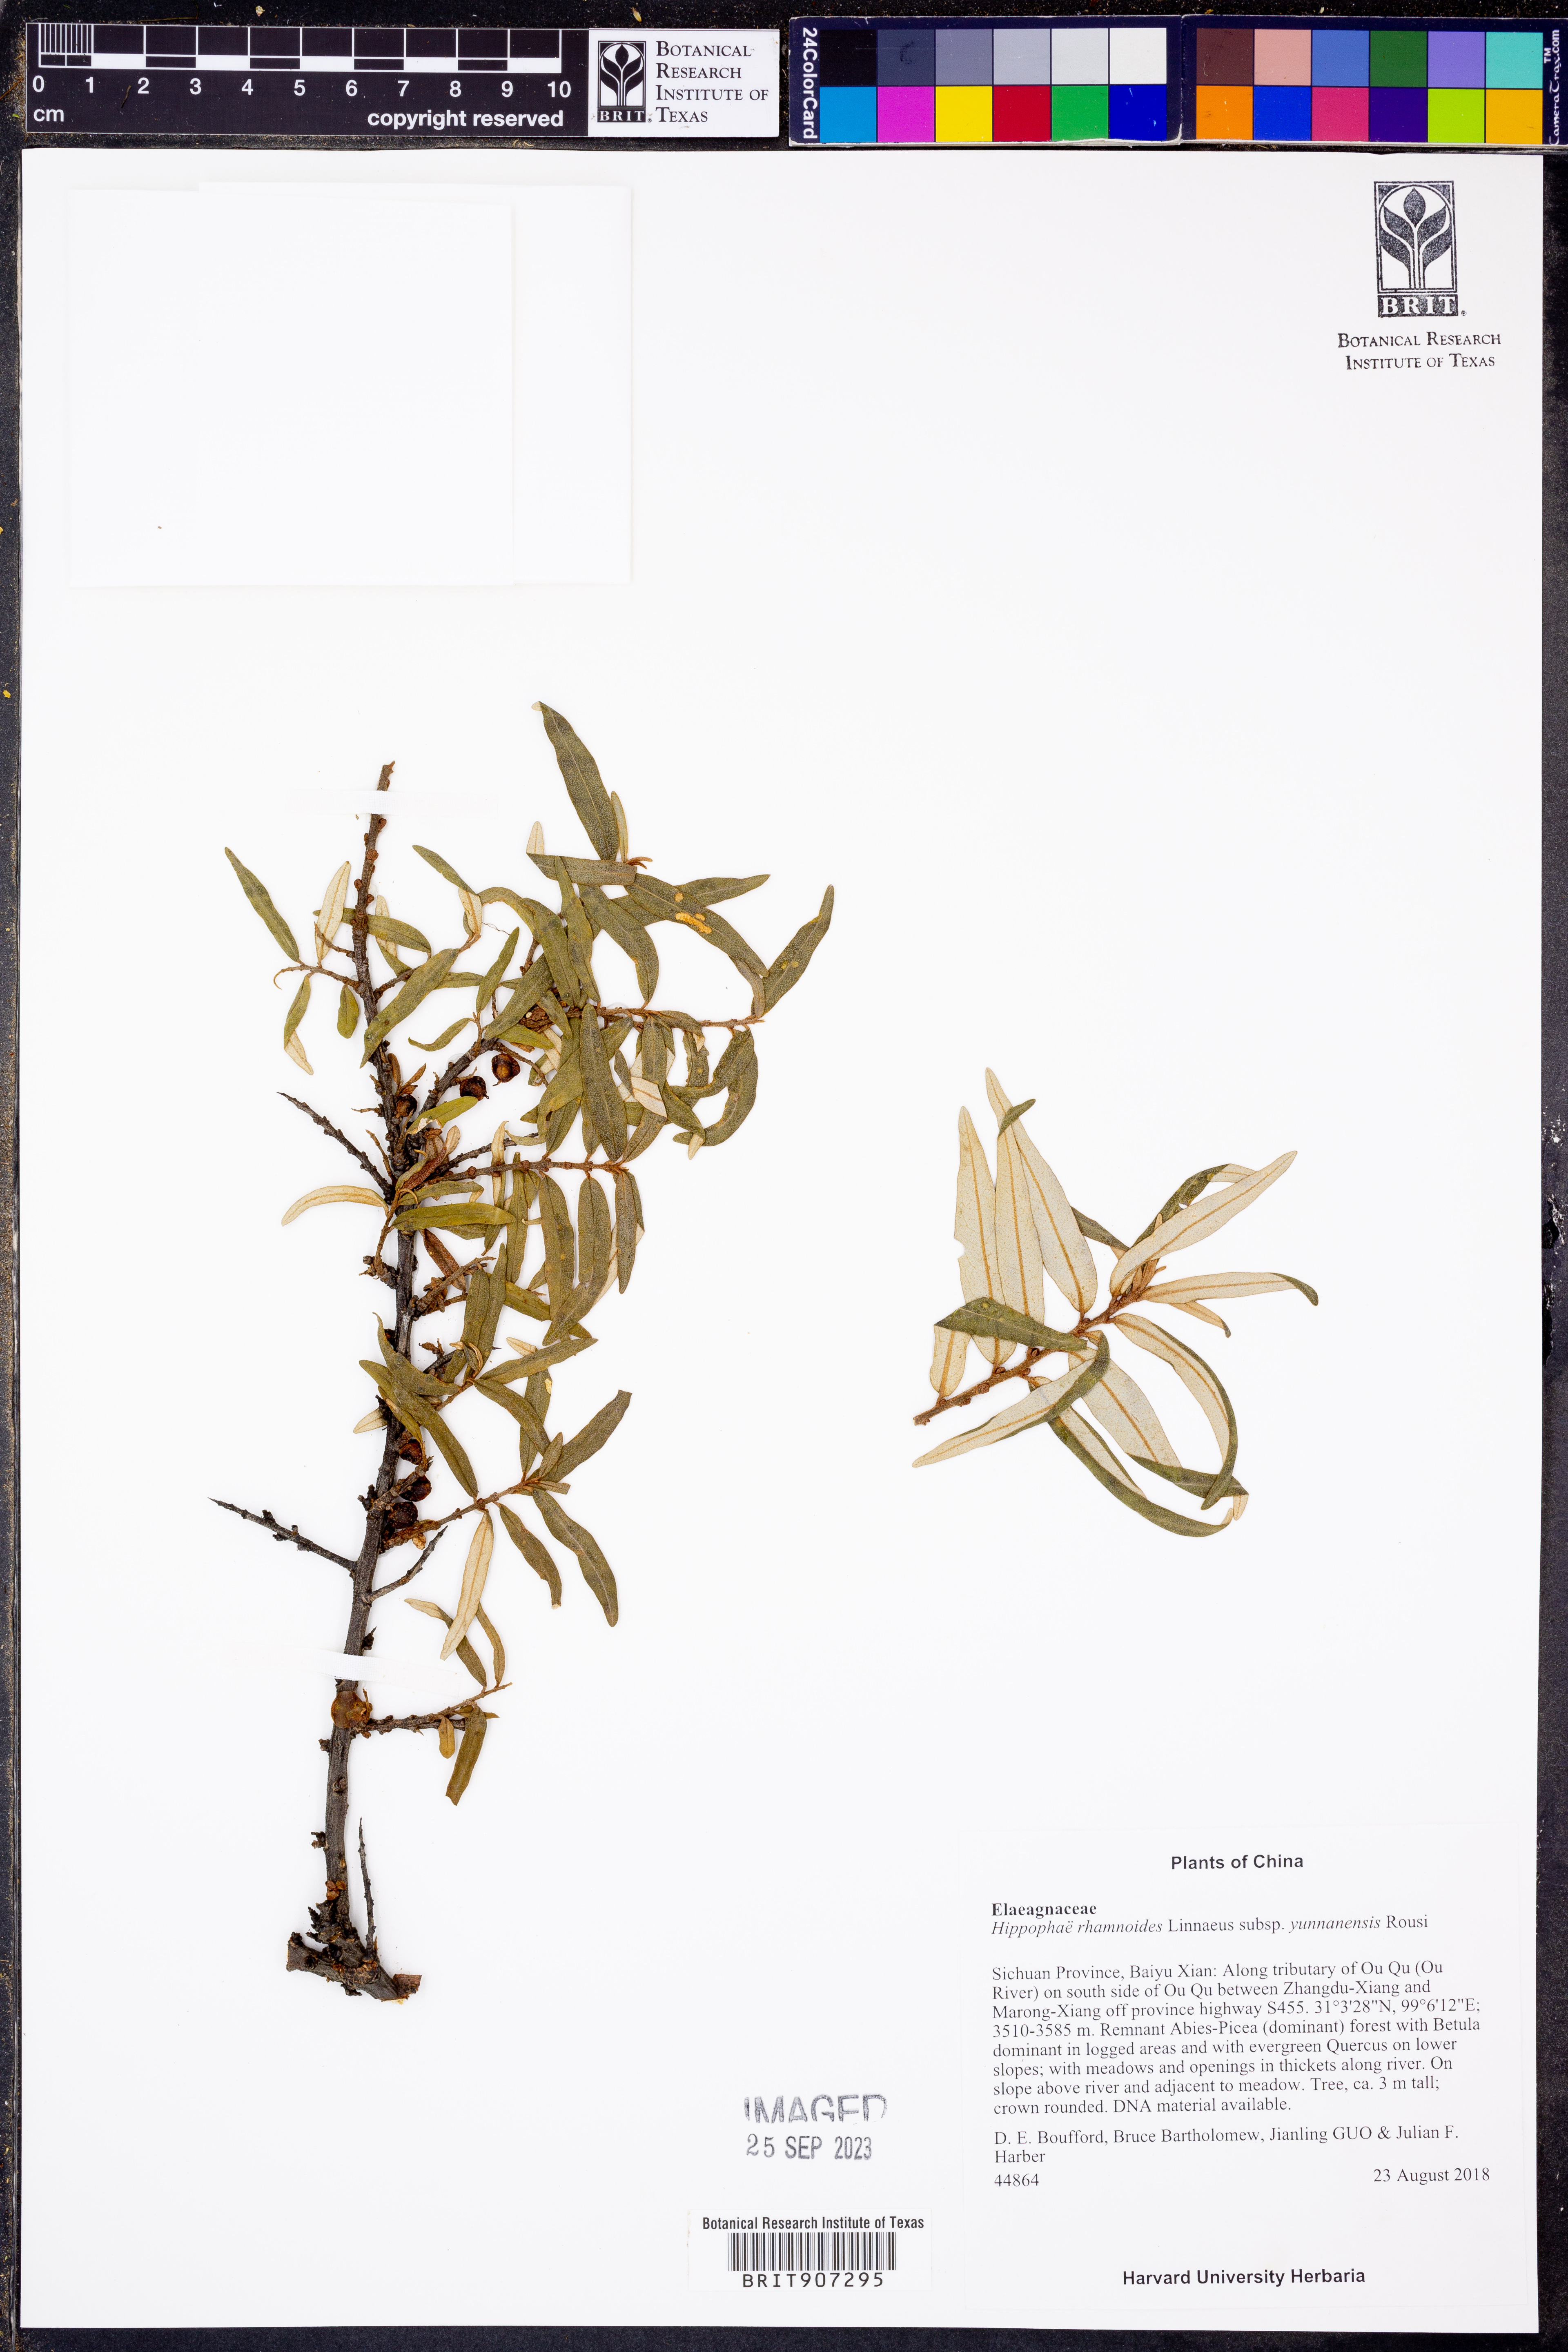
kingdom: Plantae
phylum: Tracheophyta
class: Magnoliopsida
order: Rosales
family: Elaeagnaceae
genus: Hippophae
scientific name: Hippophae rhamnoides
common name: Sea-buckthorn
